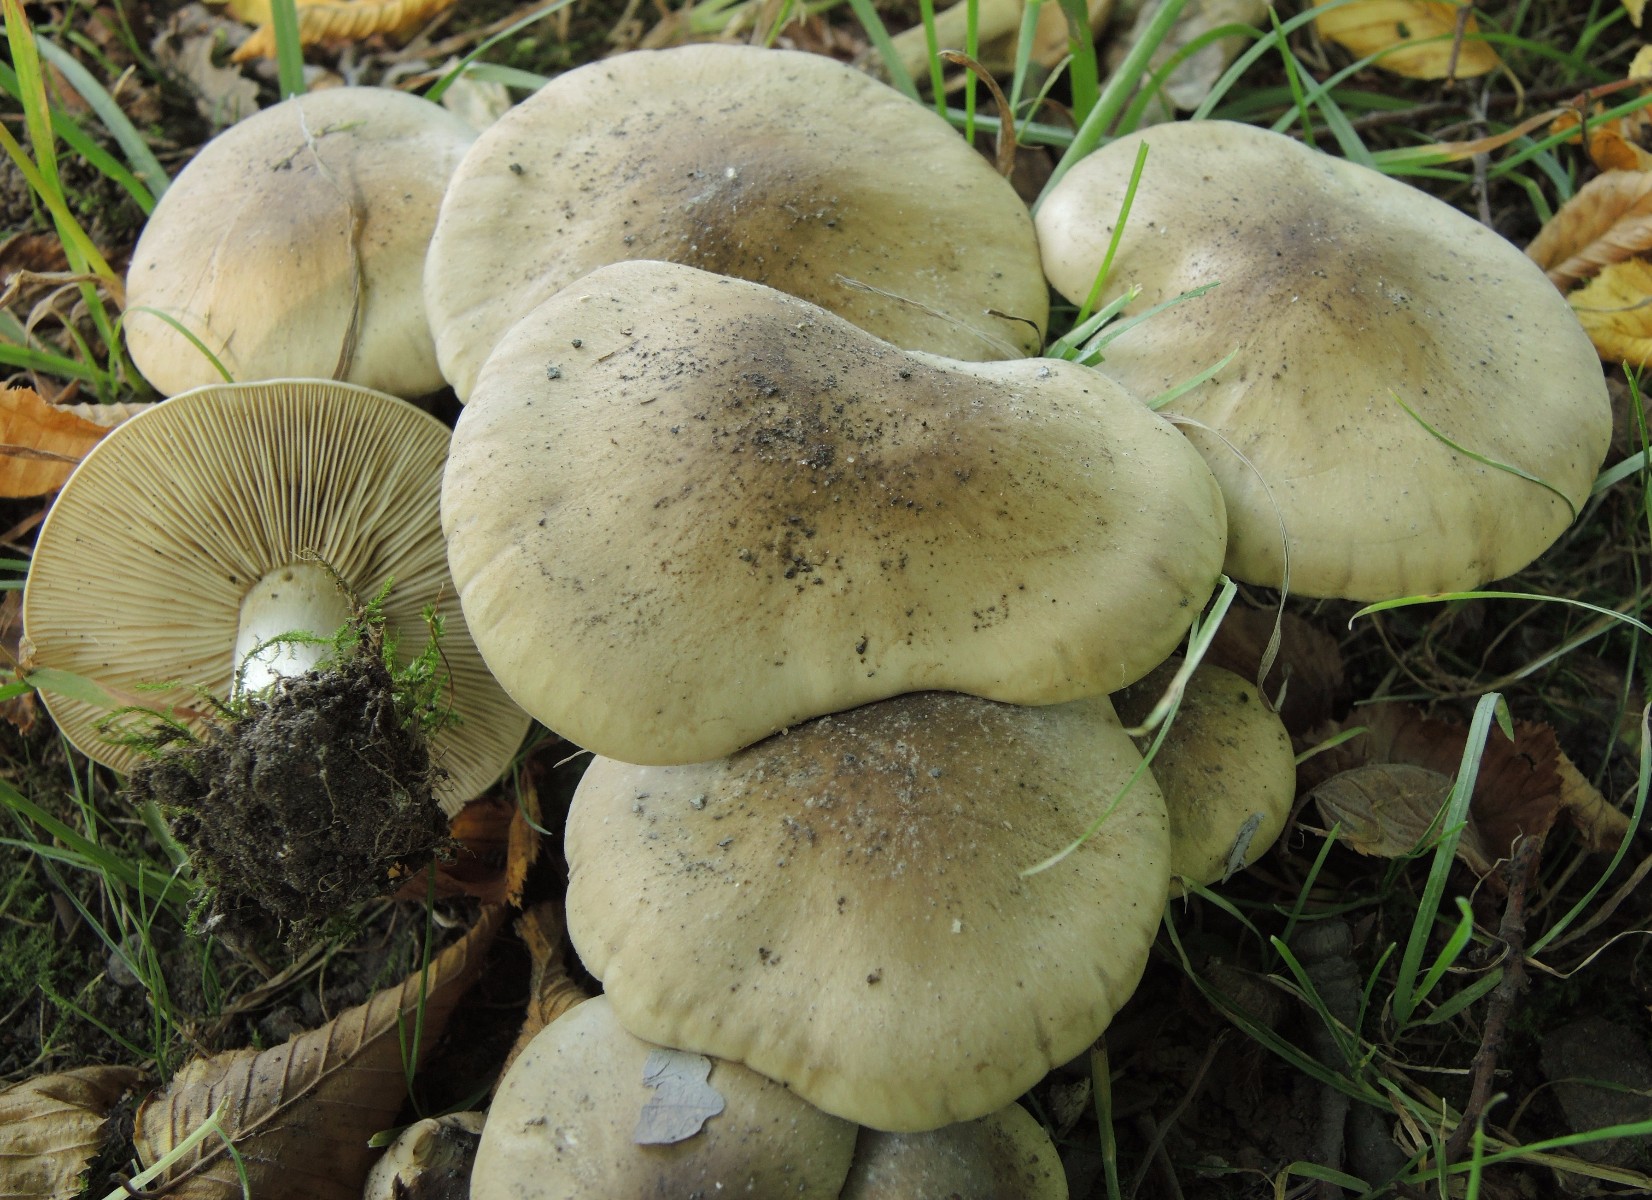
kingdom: Fungi
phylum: Basidiomycota
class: Agaricomycetes
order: Agaricales
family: Lyophyllaceae
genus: Lyophyllum
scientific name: Lyophyllum decastes
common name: Clustered domecap
